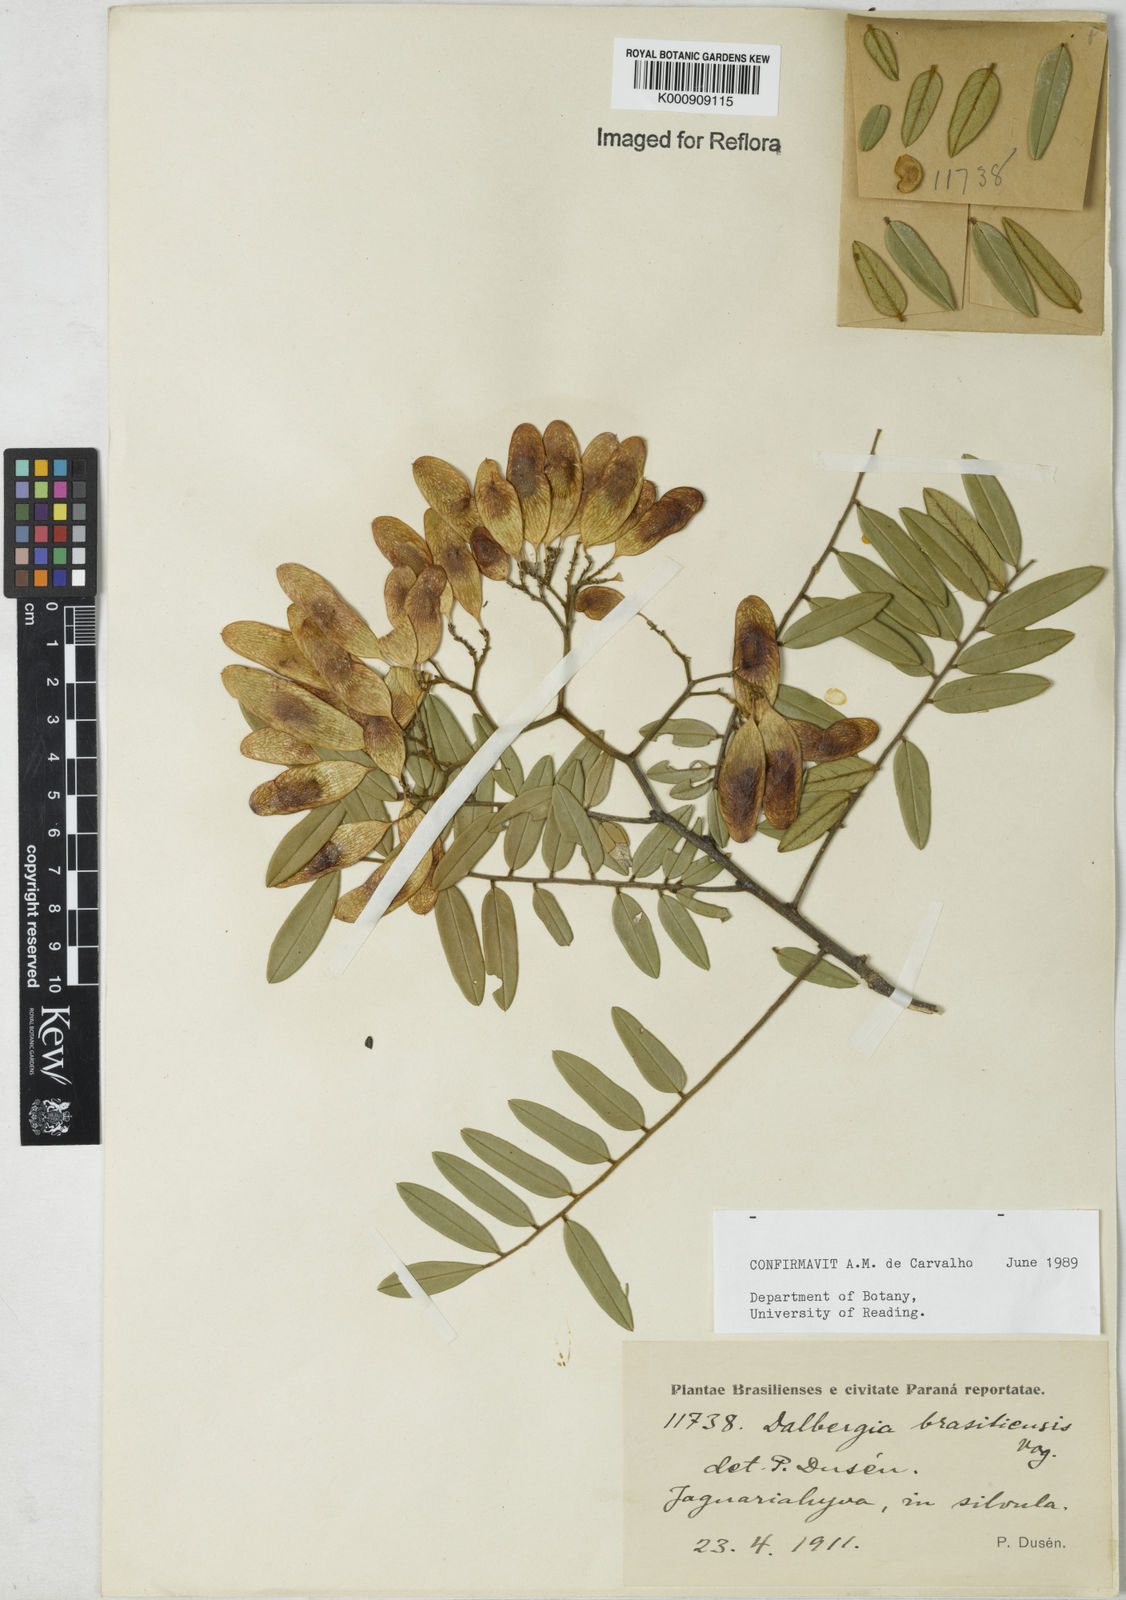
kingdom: Plantae
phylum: Tracheophyta
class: Magnoliopsida
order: Fabales
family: Fabaceae
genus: Dalbergia
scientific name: Dalbergia brasiliensis
